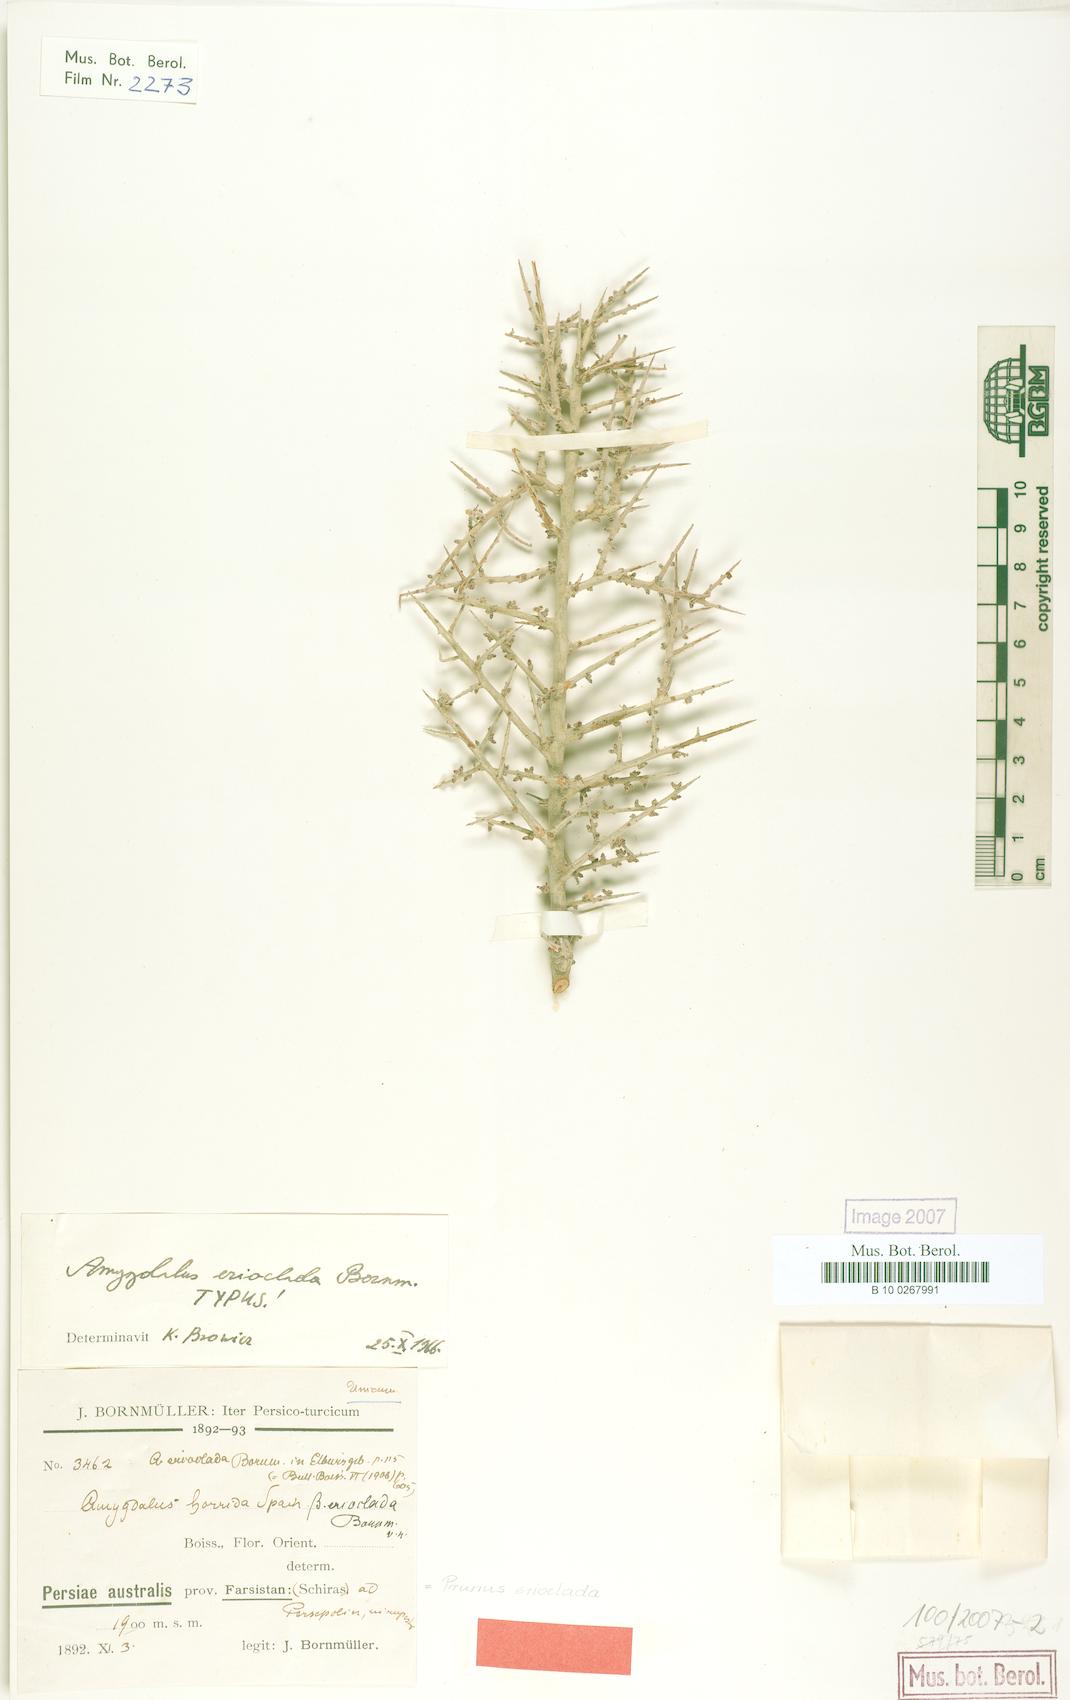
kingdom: Plantae
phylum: Tracheophyta
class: Magnoliopsida
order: Rosales
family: Rosaceae
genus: Prunus
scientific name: Prunus erioclada
